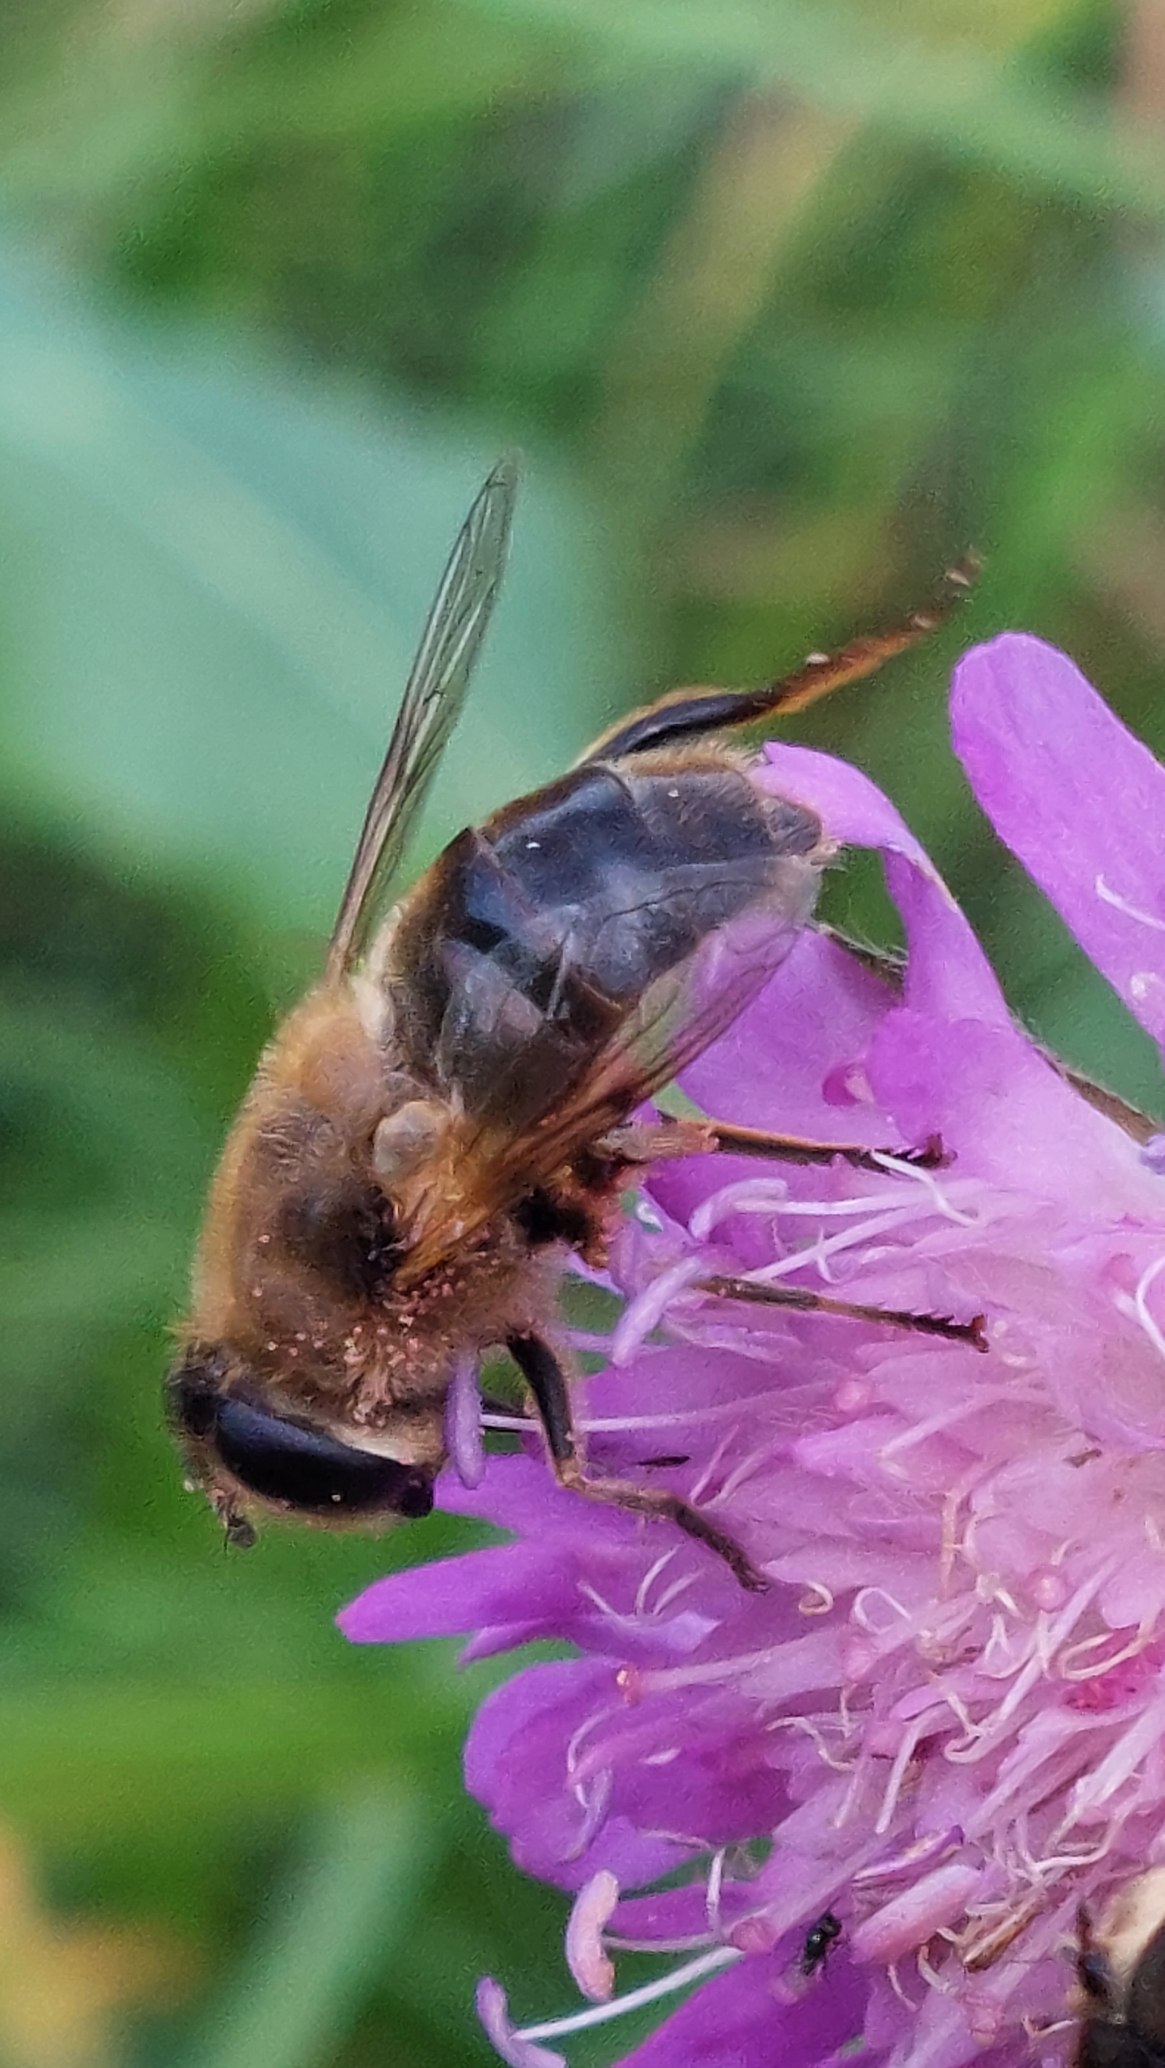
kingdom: Animalia
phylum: Arthropoda
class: Insecta
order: Diptera
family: Syrphidae
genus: Eristalis
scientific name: Eristalis tenax
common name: Droneflue
